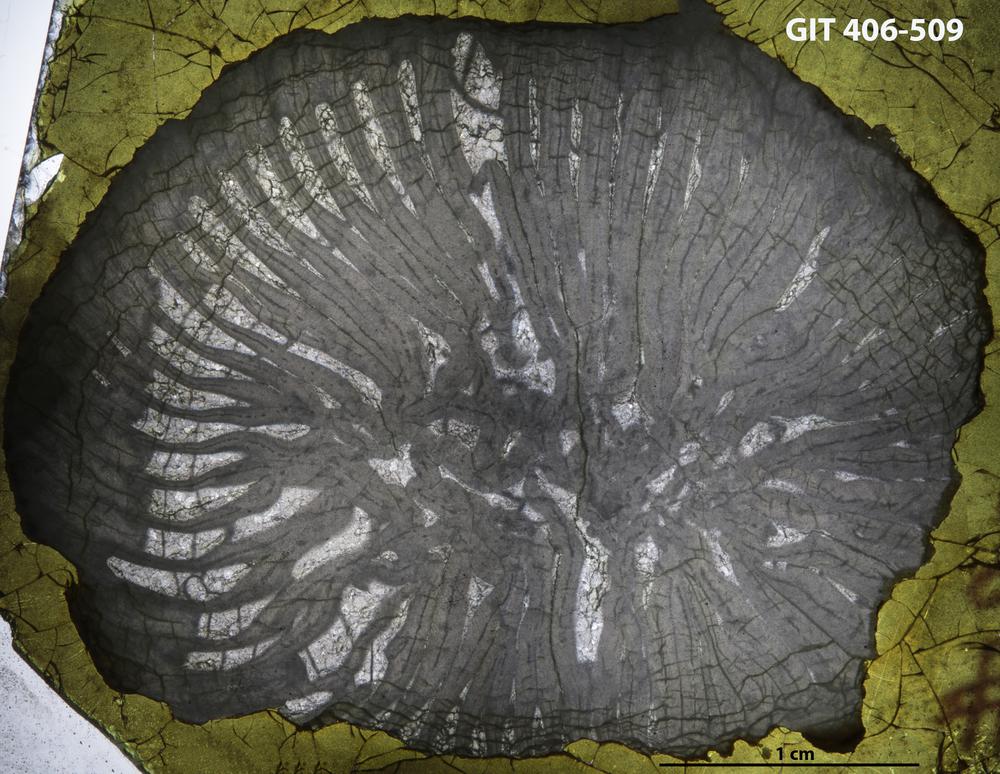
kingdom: Animalia
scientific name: Animalia
